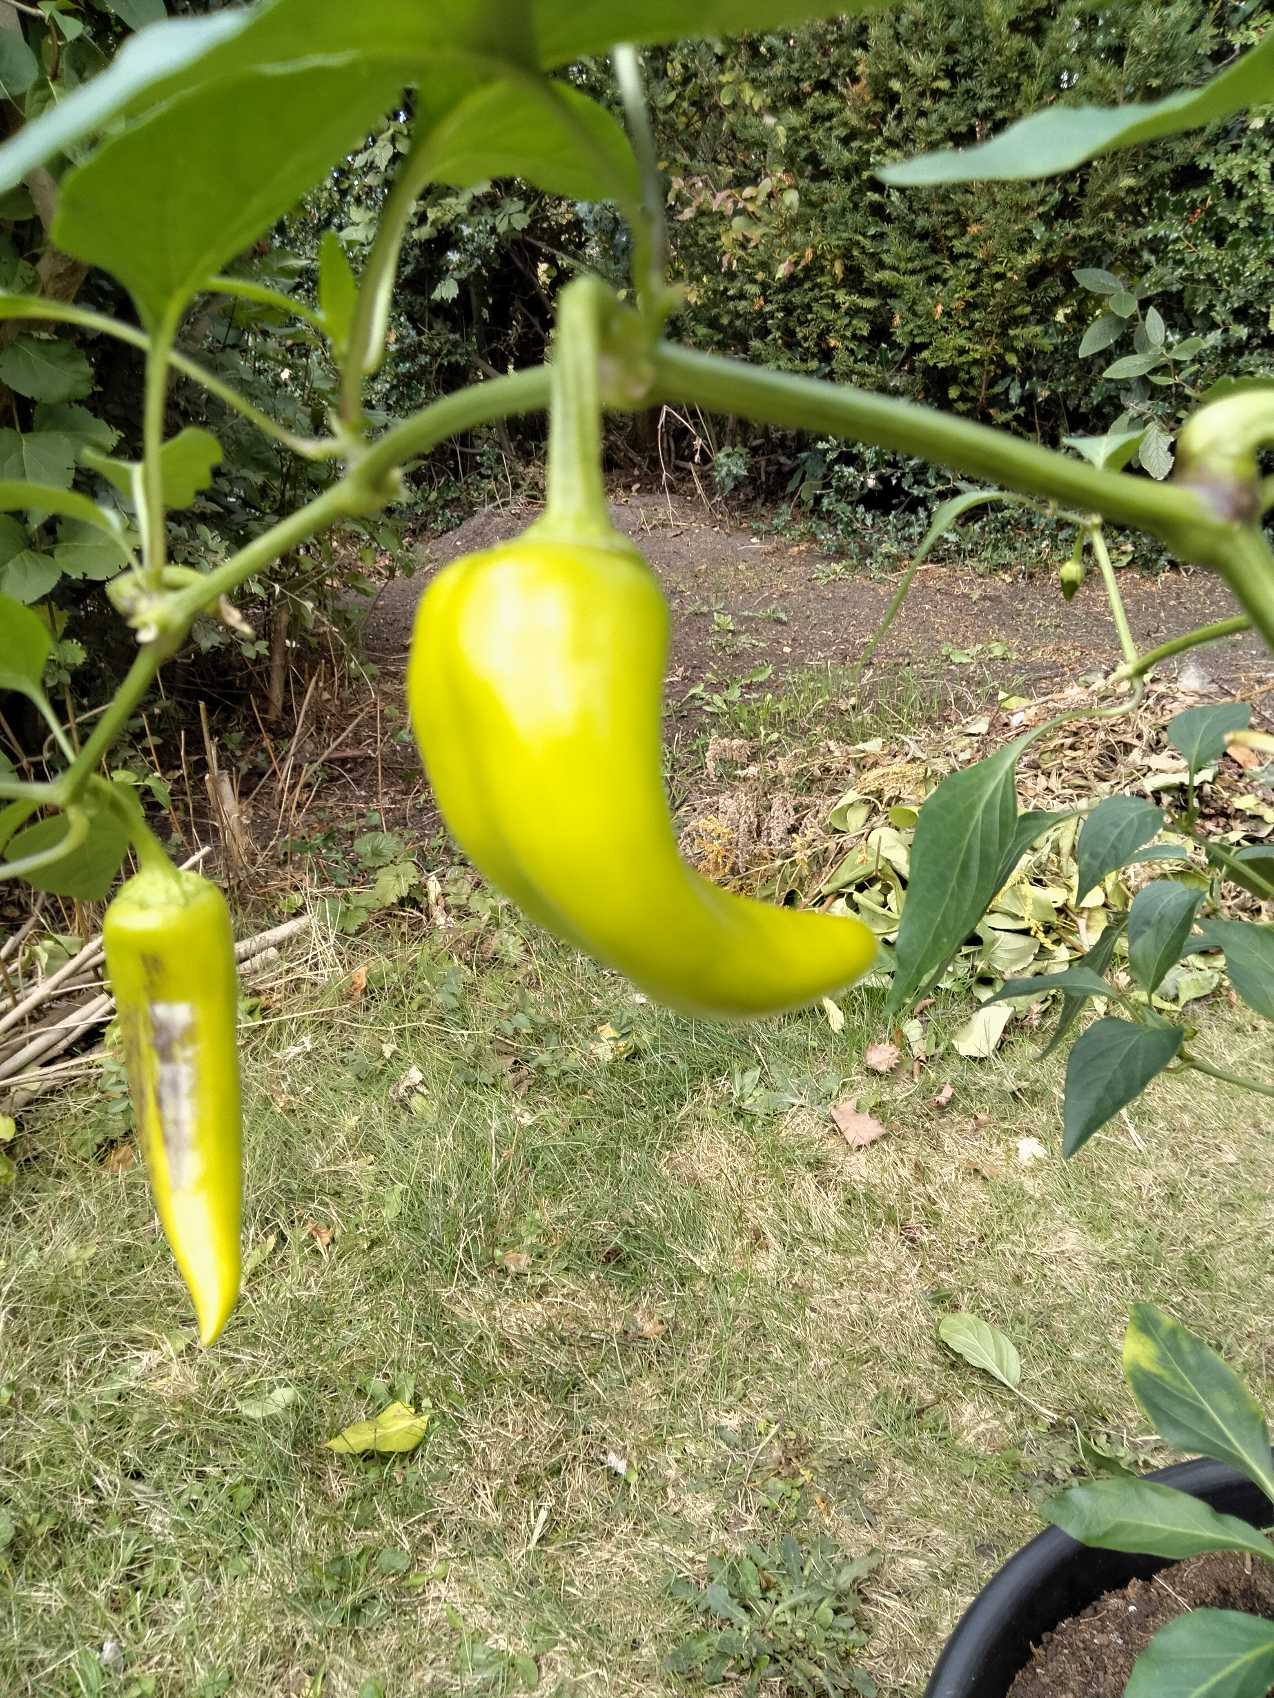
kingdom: Plantae
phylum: Tracheophyta
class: Magnoliopsida
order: Solanales
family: Solanaceae
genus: Capsicum
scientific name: Capsicum
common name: Peberslægten
